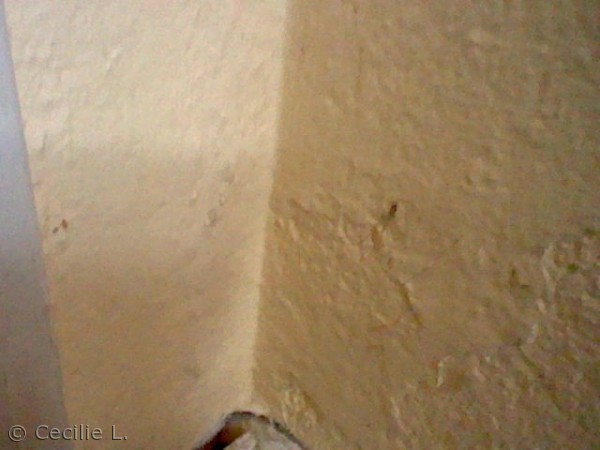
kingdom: Animalia
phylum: Arthropoda
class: Arachnida
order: Araneae
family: Pholcidae
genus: Pholcus
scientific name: Pholcus phalangioides
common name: Mejeredderkop
